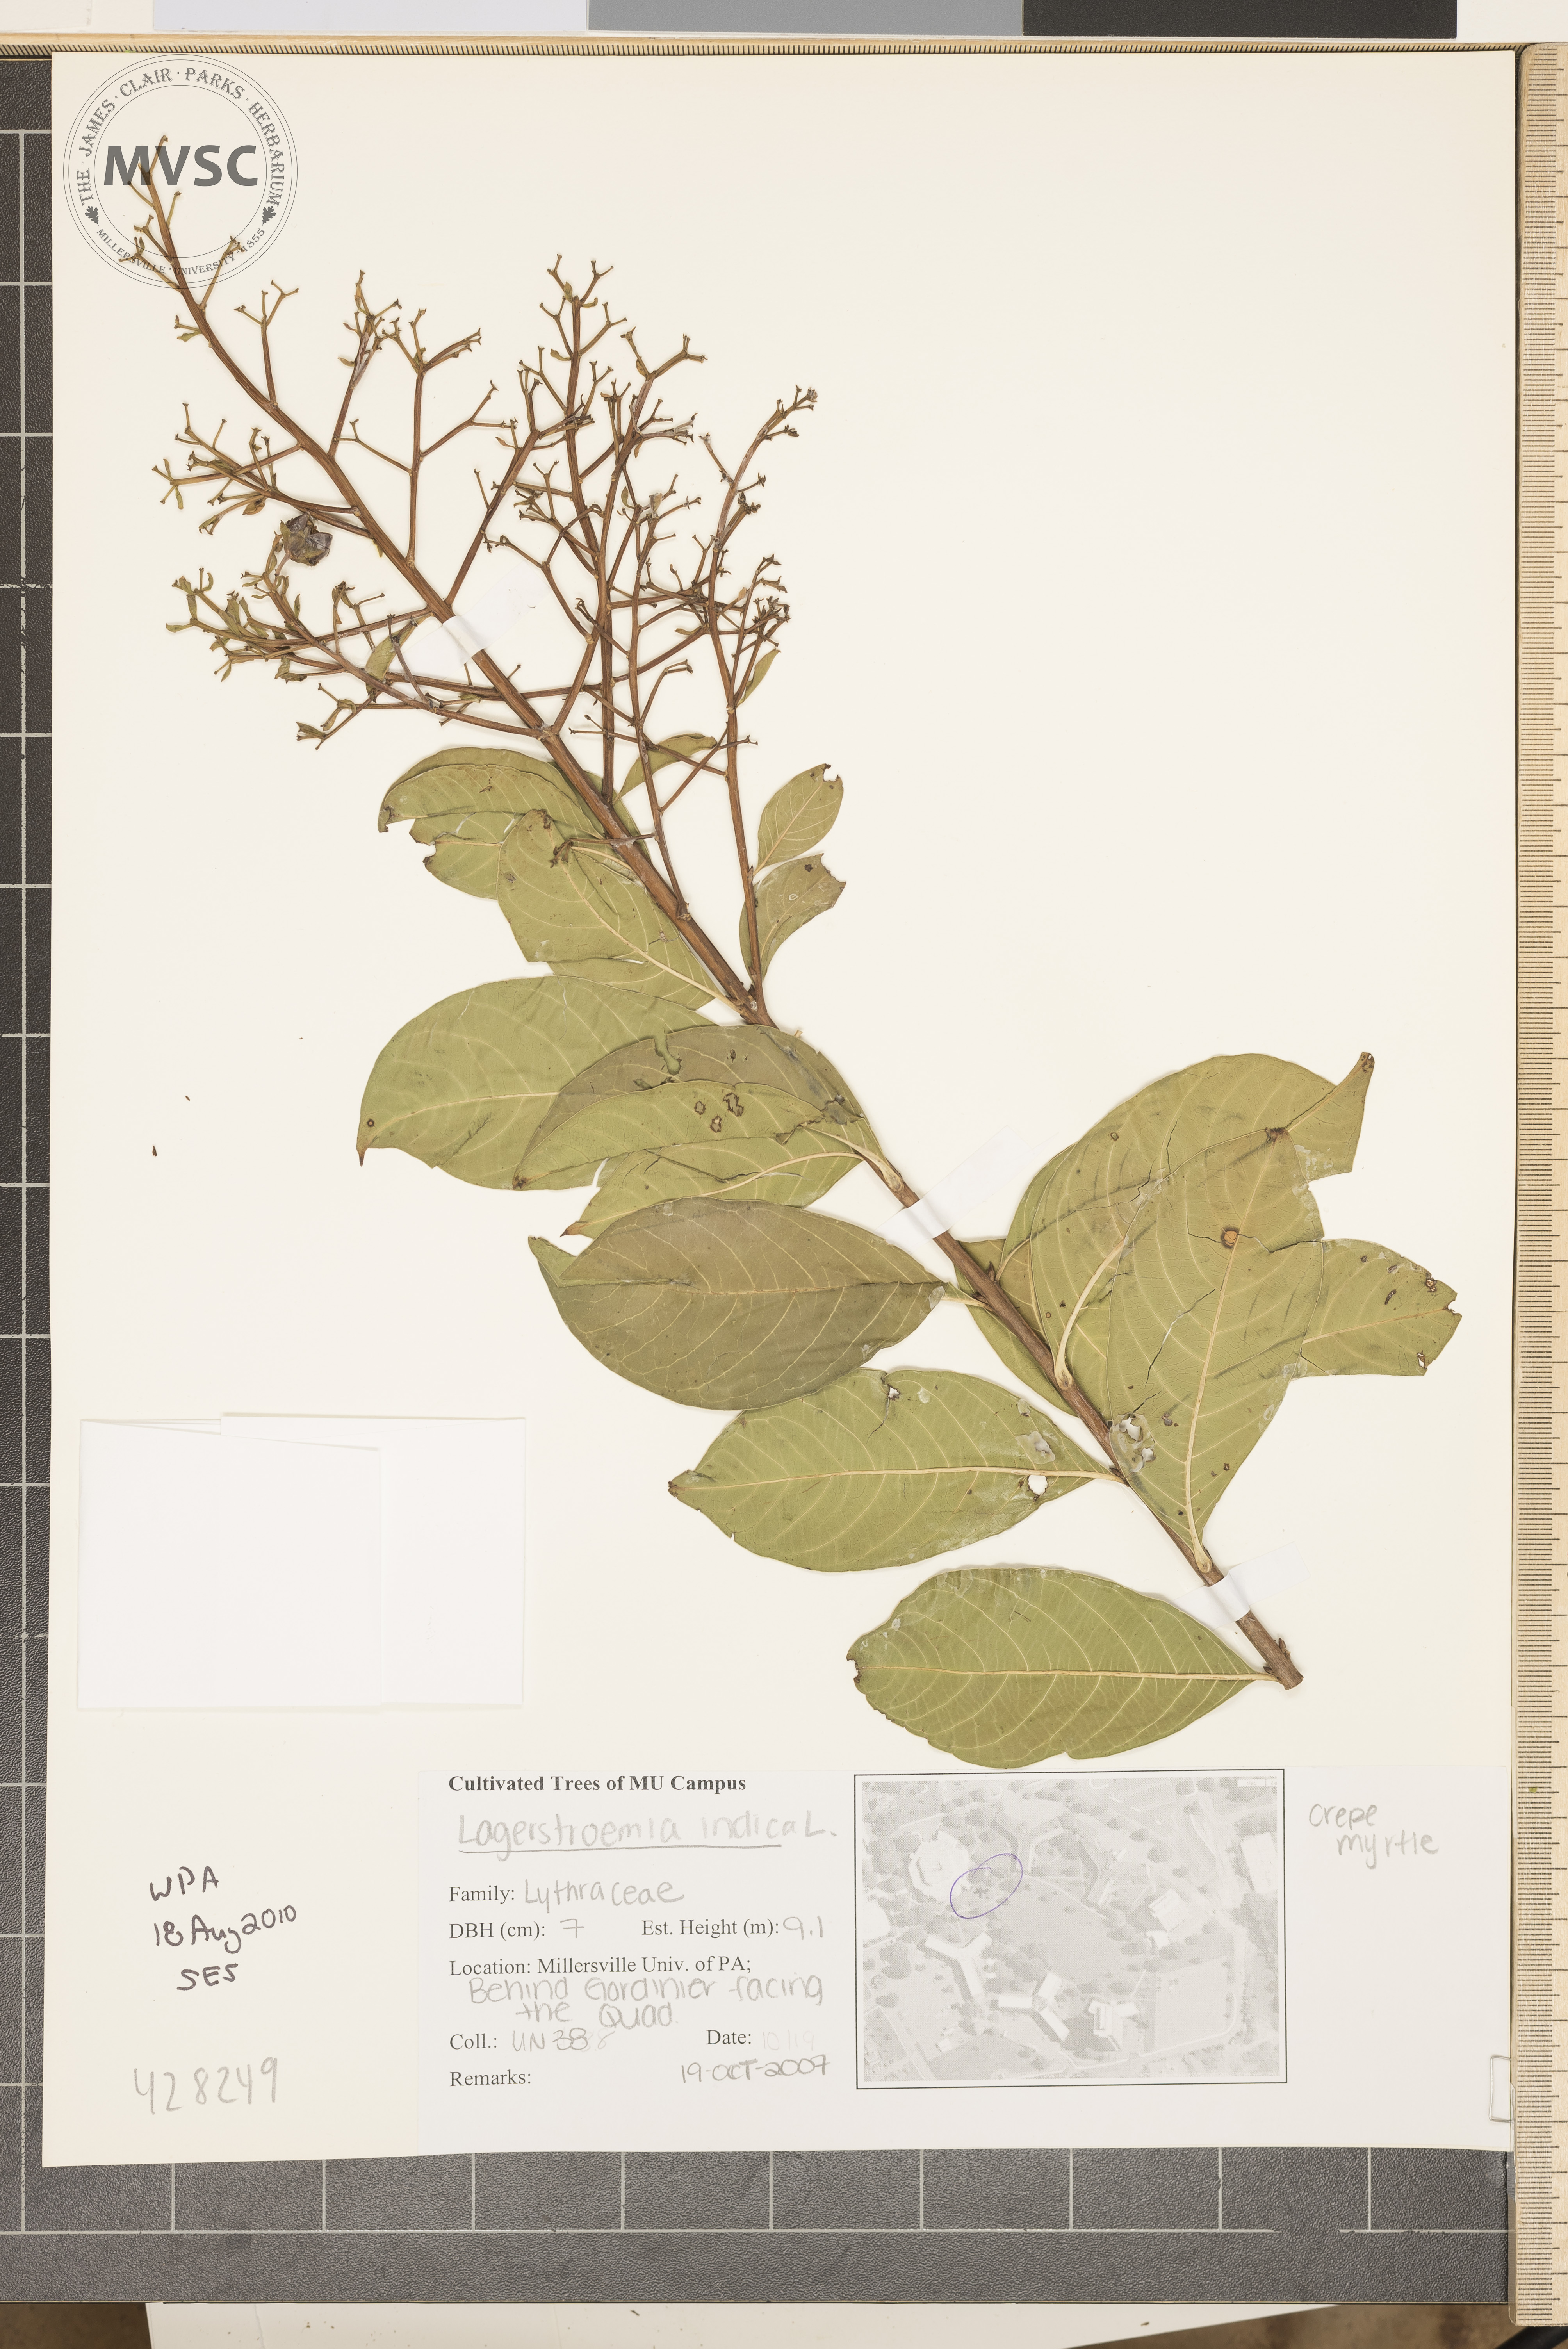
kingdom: Plantae
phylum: Tracheophyta
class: Magnoliopsida
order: Myrtales
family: Lythraceae
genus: Lagerstroemia
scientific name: Lagerstroemia indica
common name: Crapemyrtle
